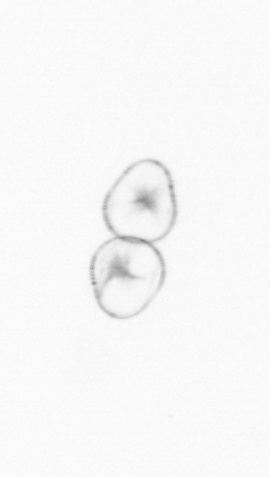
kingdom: Chromista
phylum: Myzozoa
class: Dinophyceae
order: Noctilucales
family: Noctilucaceae
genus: Noctiluca
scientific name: Noctiluca scintillans
